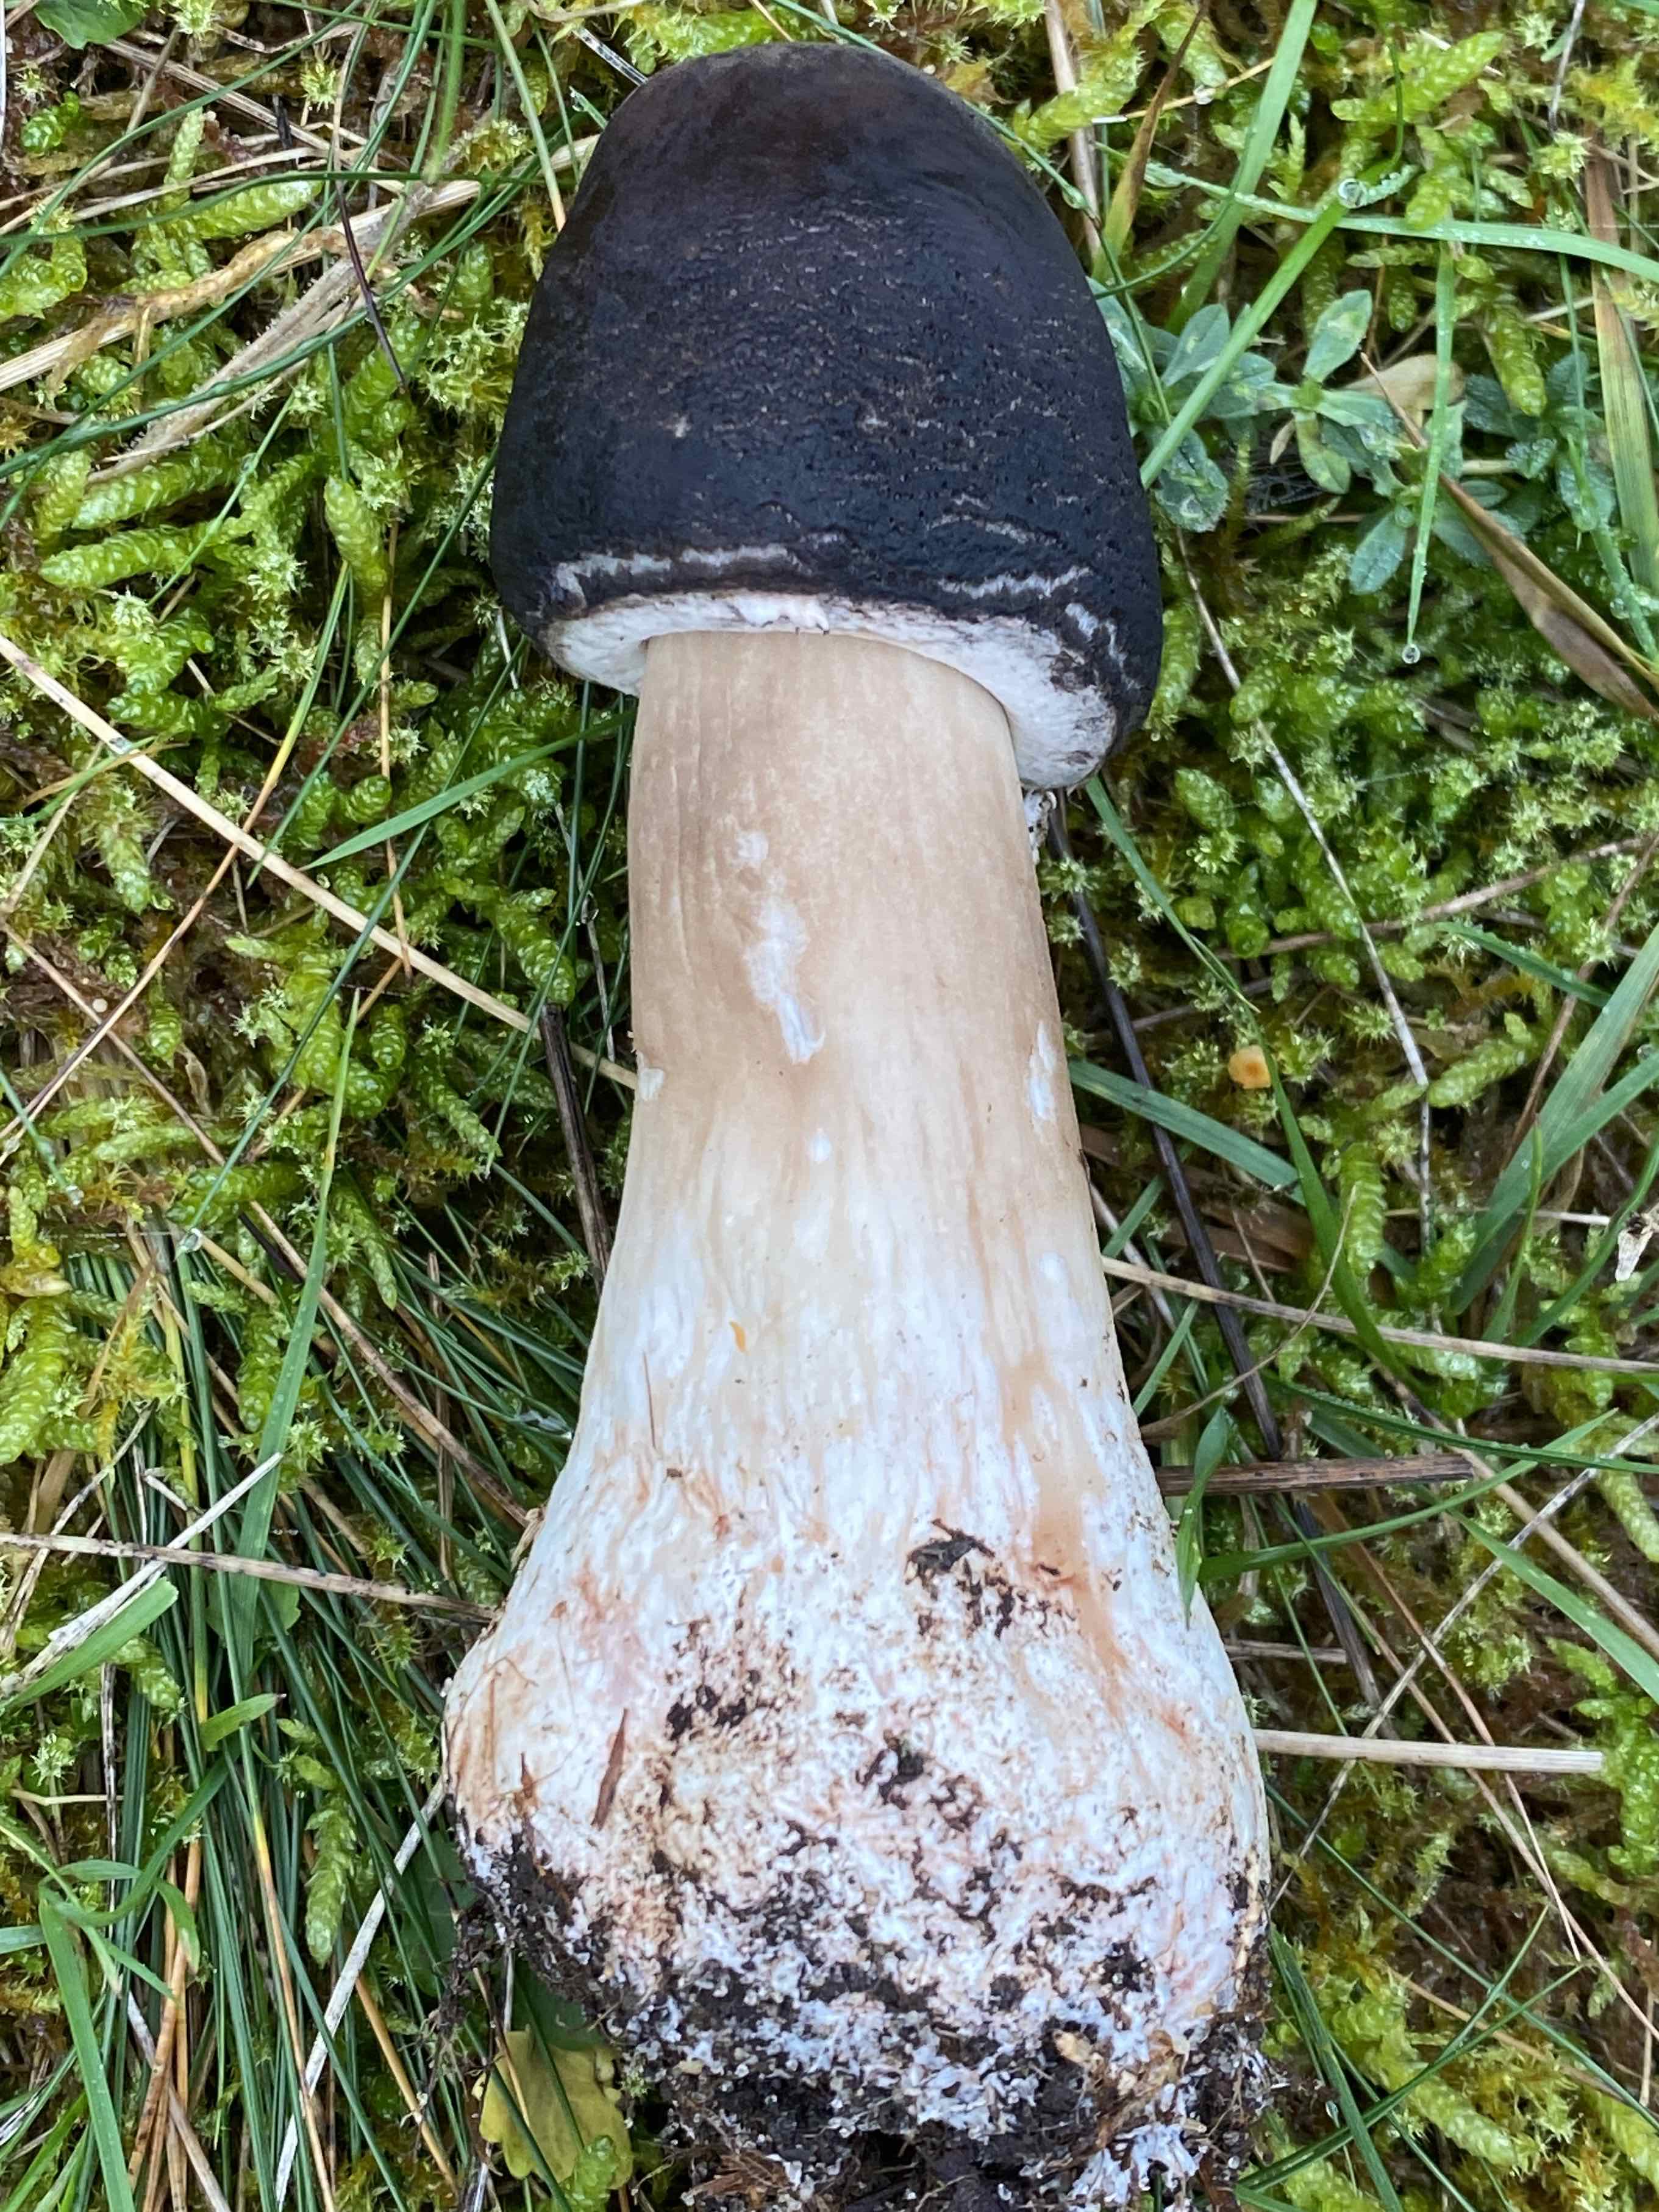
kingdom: Fungi
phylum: Basidiomycota
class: Agaricomycetes
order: Agaricales
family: Agaricaceae
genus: Chlorophyllum
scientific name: Chlorophyllum
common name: rabarberhat
